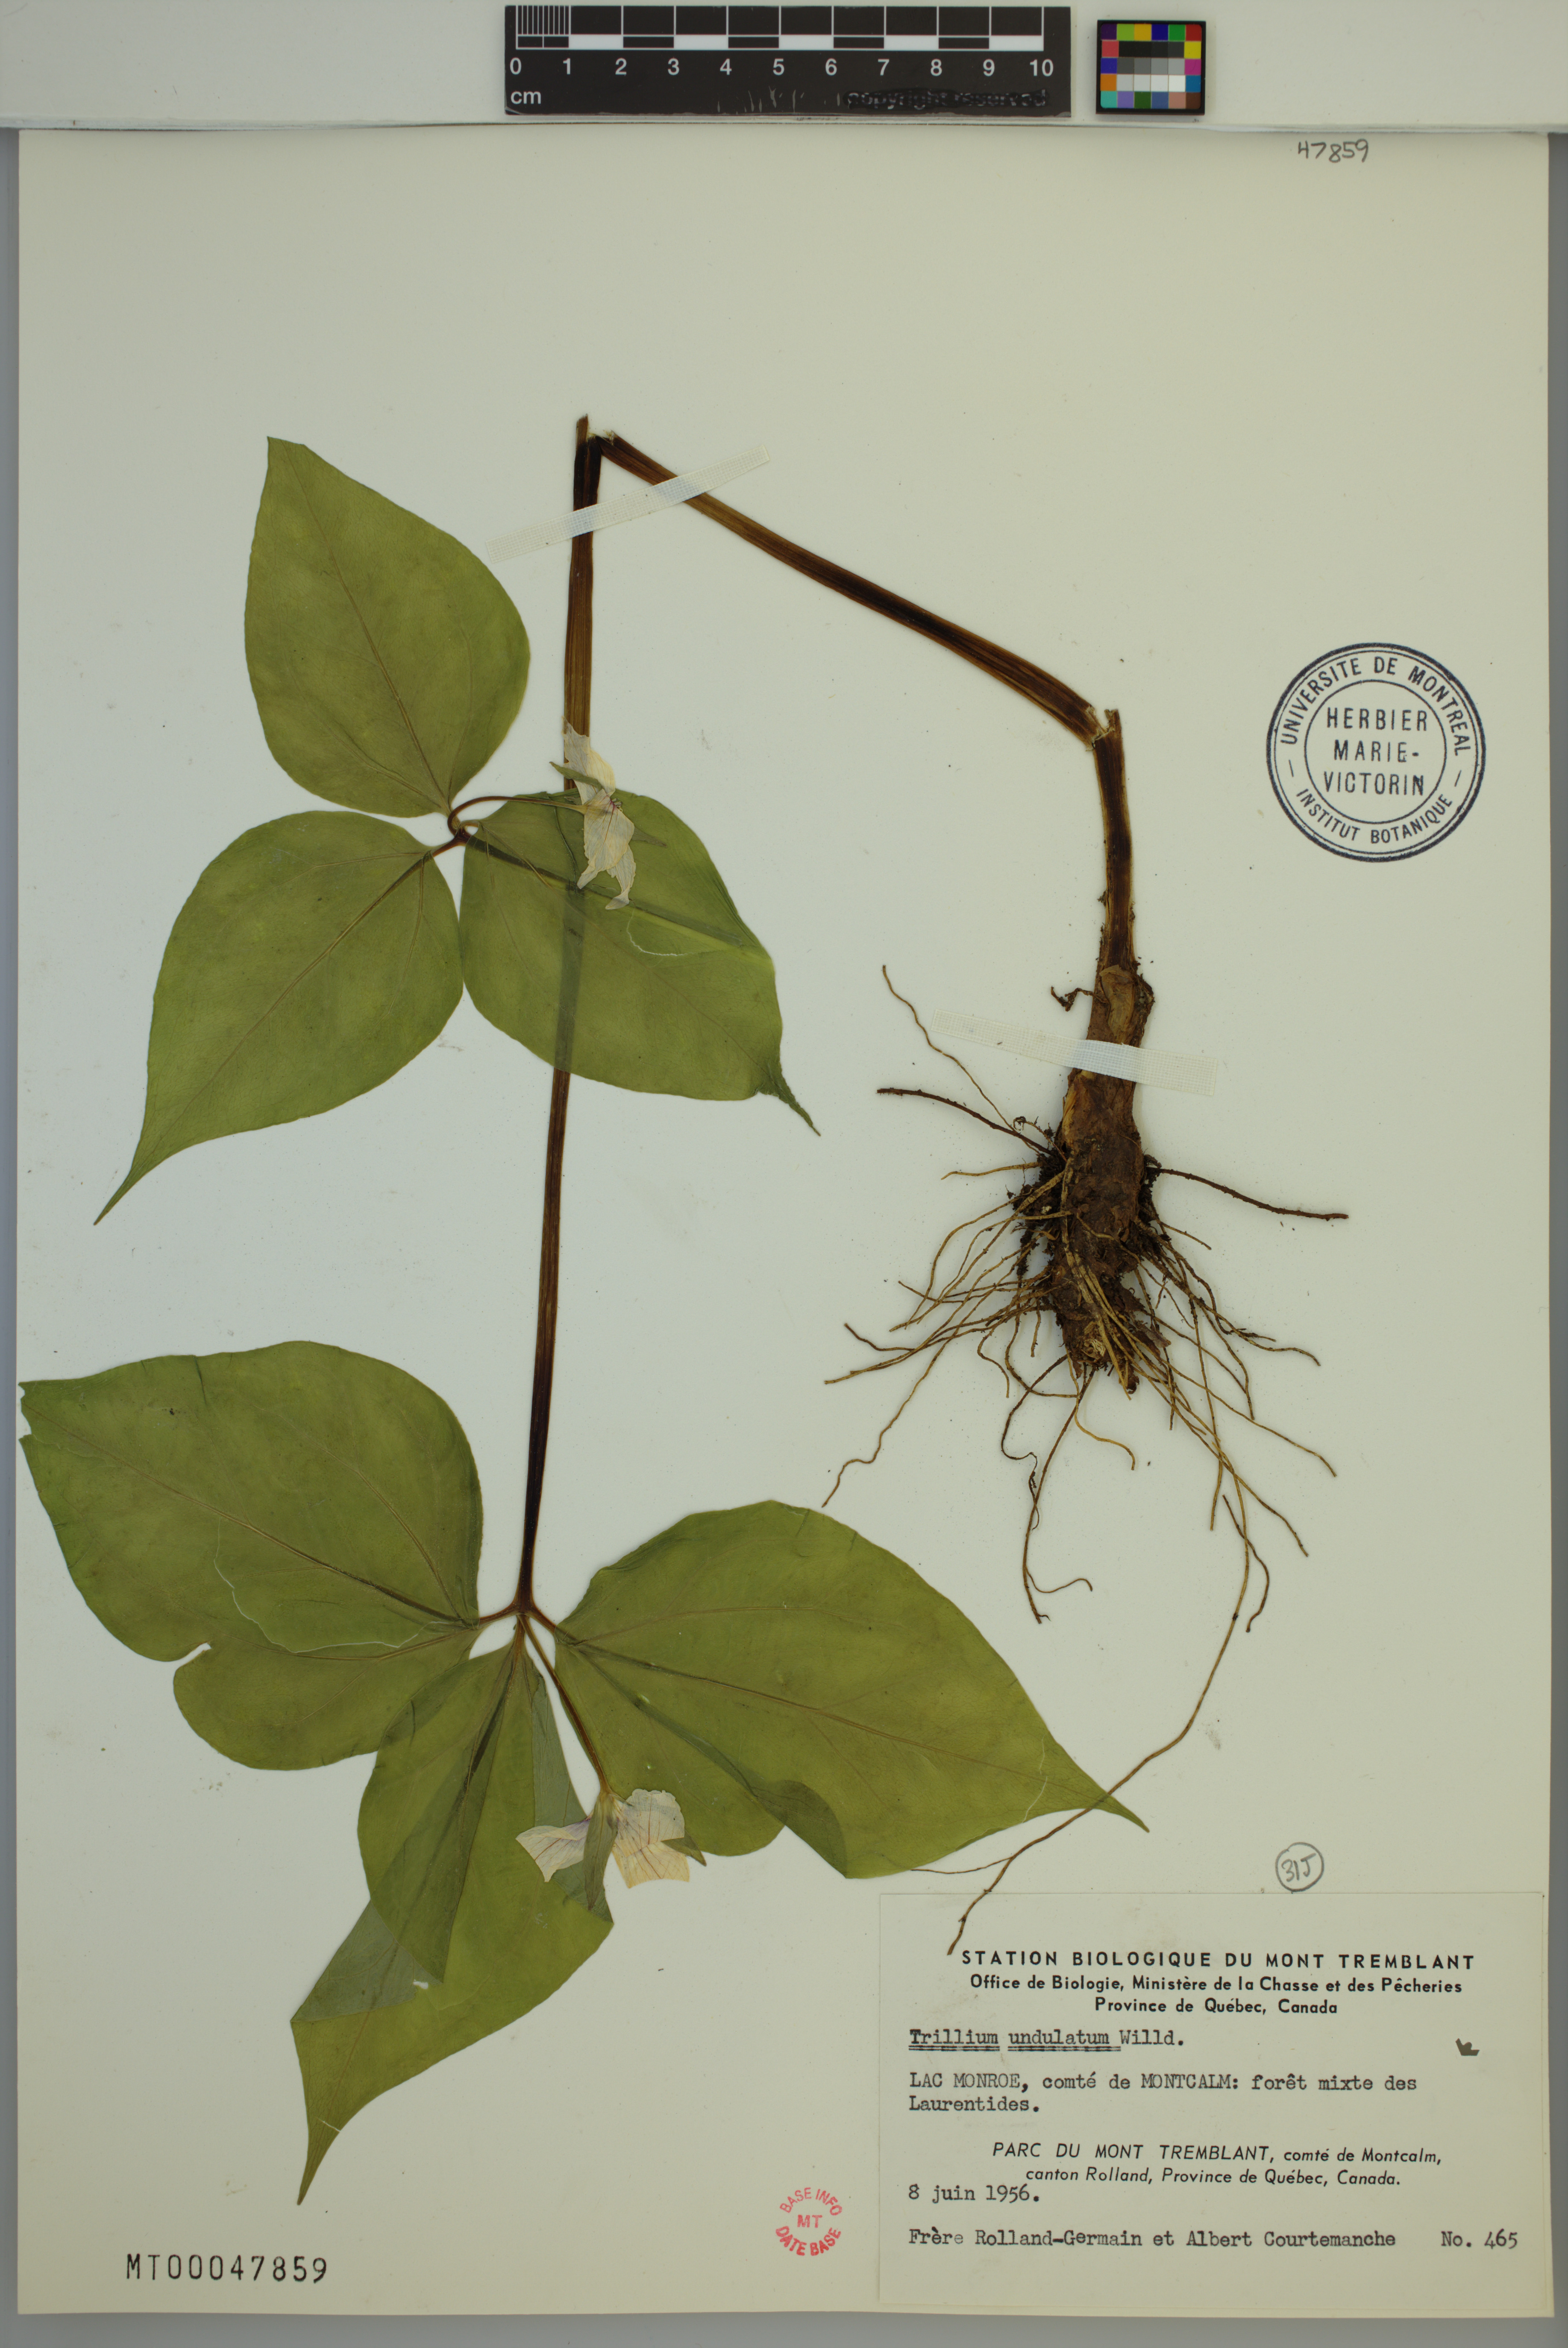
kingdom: Plantae
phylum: Tracheophyta
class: Liliopsida
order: Liliales
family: Melanthiaceae
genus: Trillium
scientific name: Trillium undulatum
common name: Paint trillium
